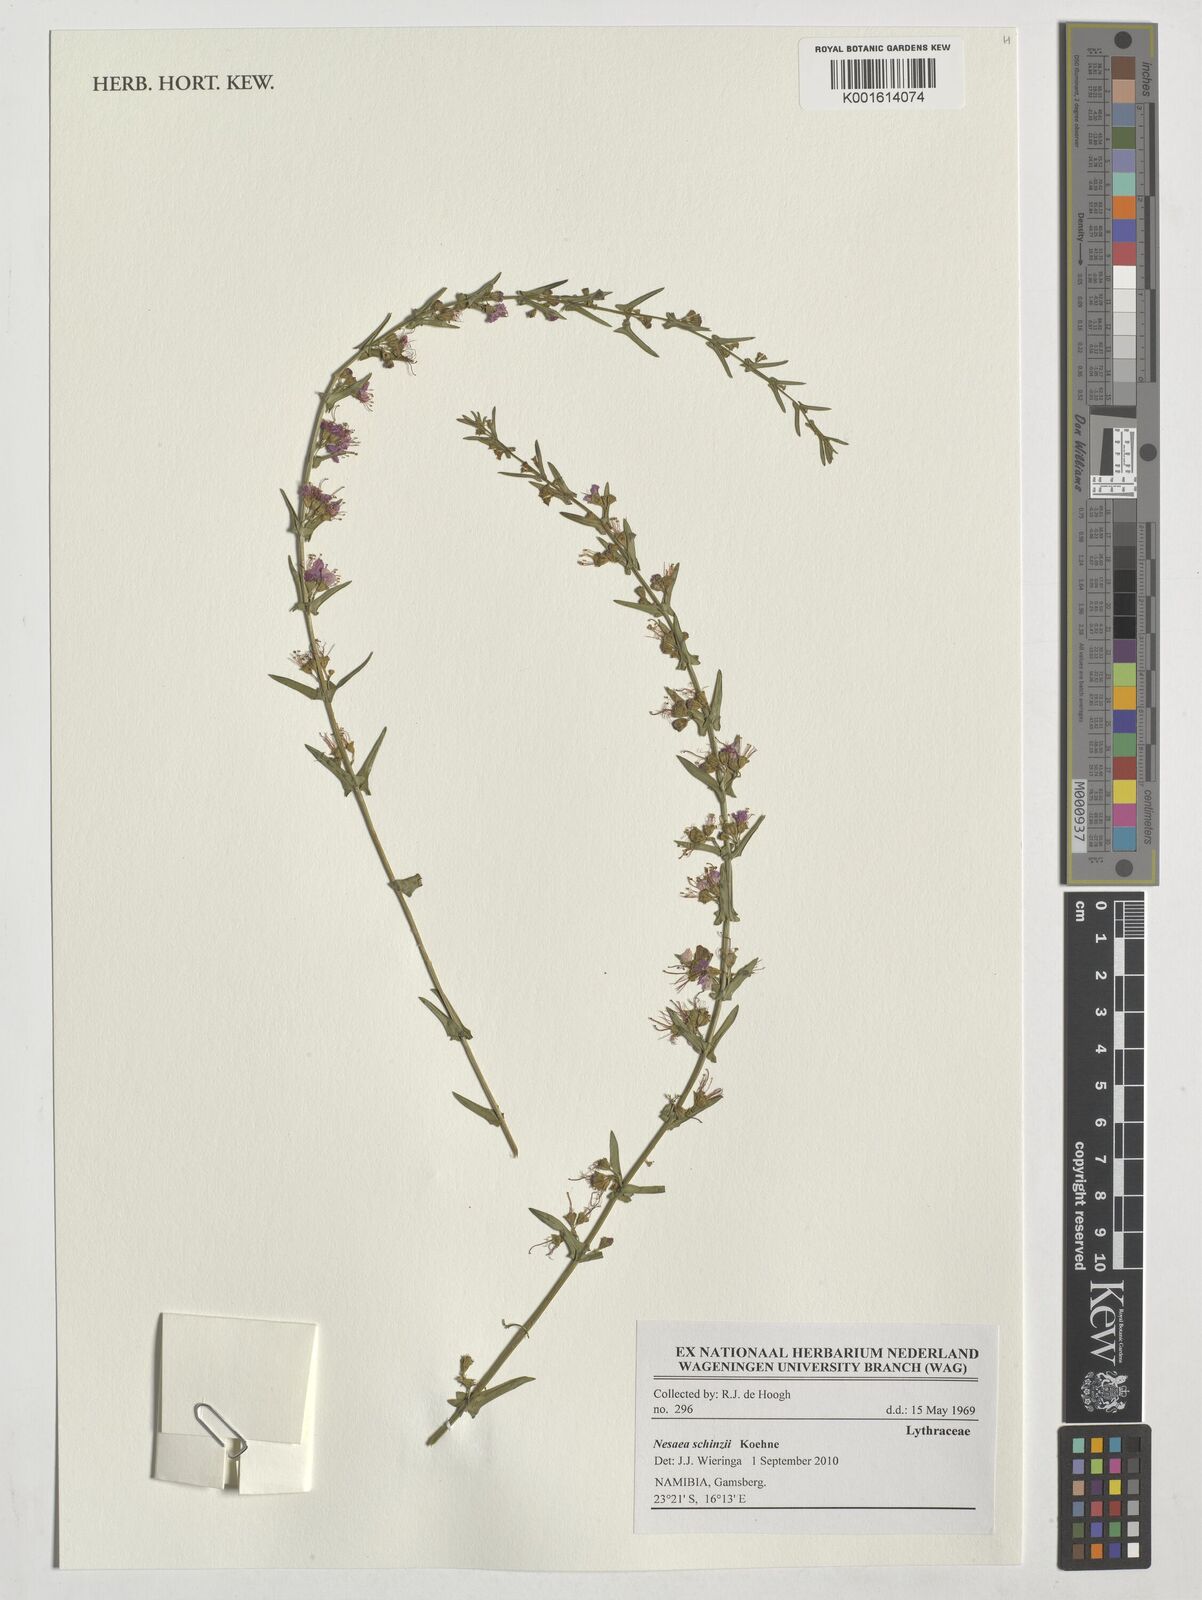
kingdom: Plantae
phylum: Tracheophyta
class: Magnoliopsida
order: Myrtales
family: Lythraceae
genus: Ammannia
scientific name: Ammannia schinzii
